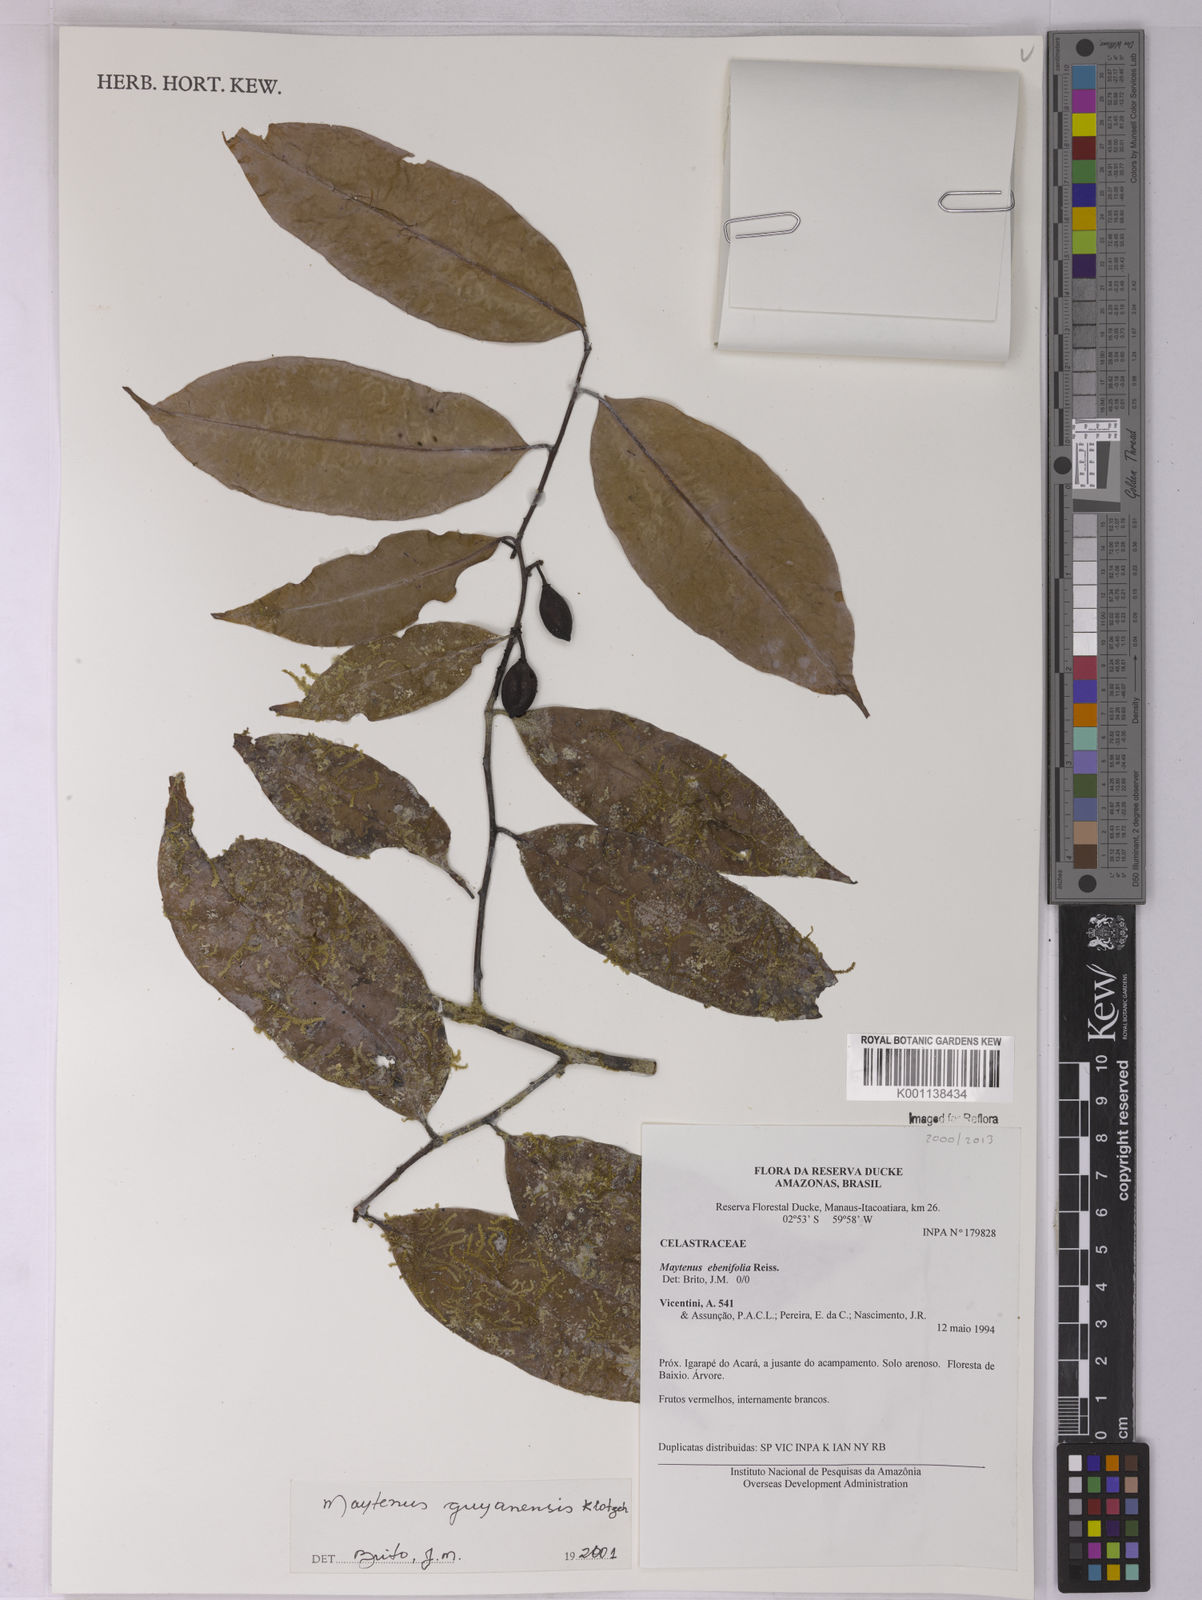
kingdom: Plantae
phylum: Tracheophyta
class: Magnoliopsida
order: Celastrales
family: Celastraceae
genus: Monteverdia
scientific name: Monteverdia guyanensis
